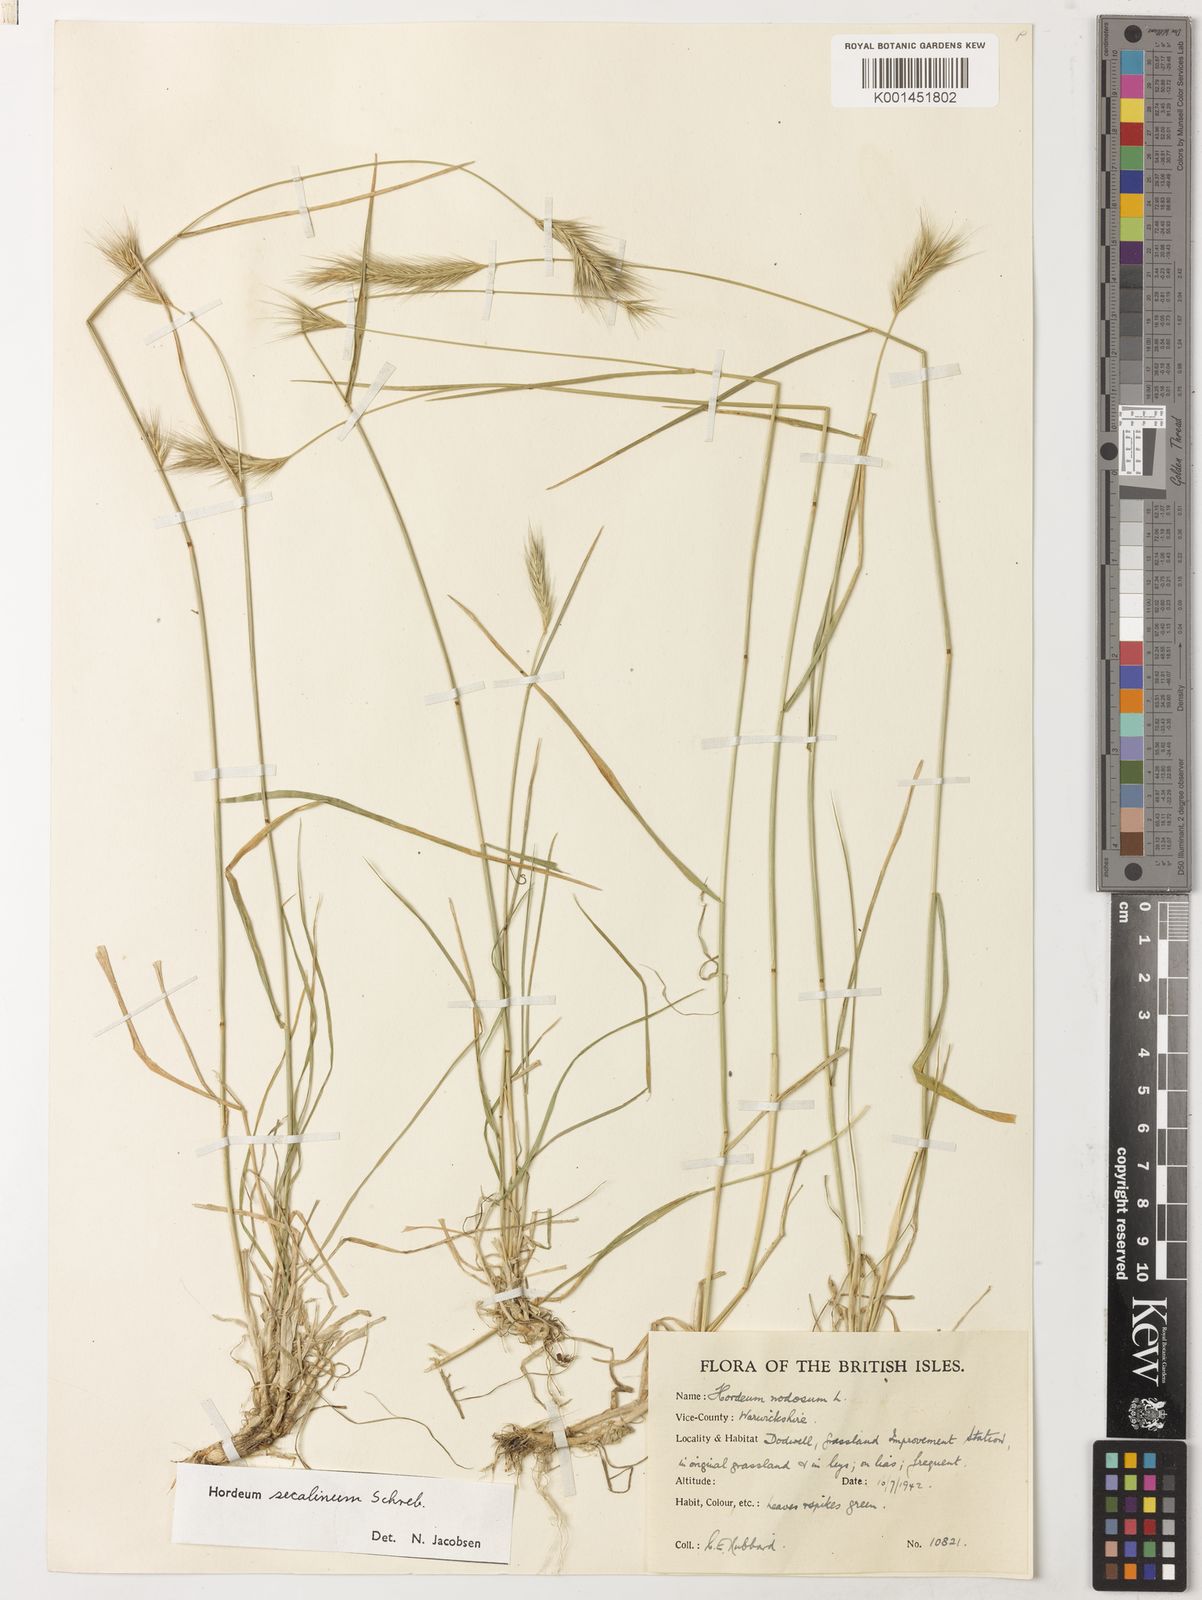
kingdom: Plantae
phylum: Tracheophyta
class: Liliopsida
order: Poales
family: Poaceae
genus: Hordeum
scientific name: Hordeum secalinum
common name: Meadow barley
